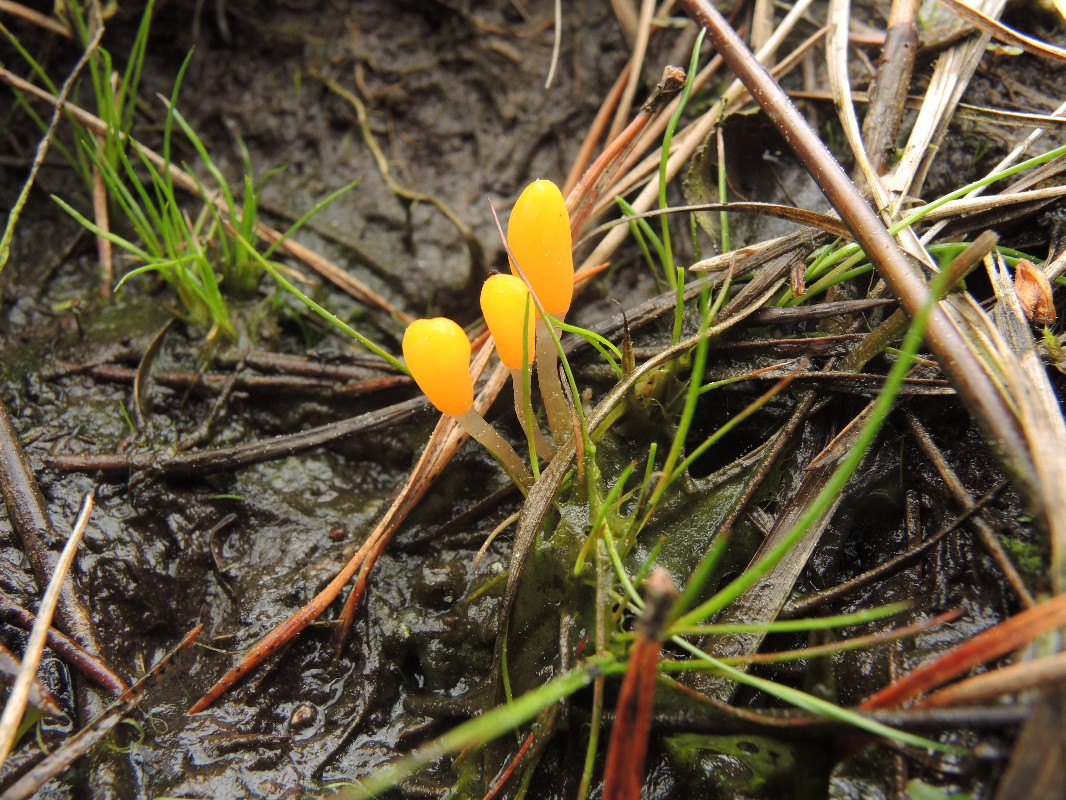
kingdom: Fungi
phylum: Ascomycota
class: Leotiomycetes
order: Helotiales
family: Cenangiaceae
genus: Mitrula
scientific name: Mitrula paludosa
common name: gul nøkketunge
